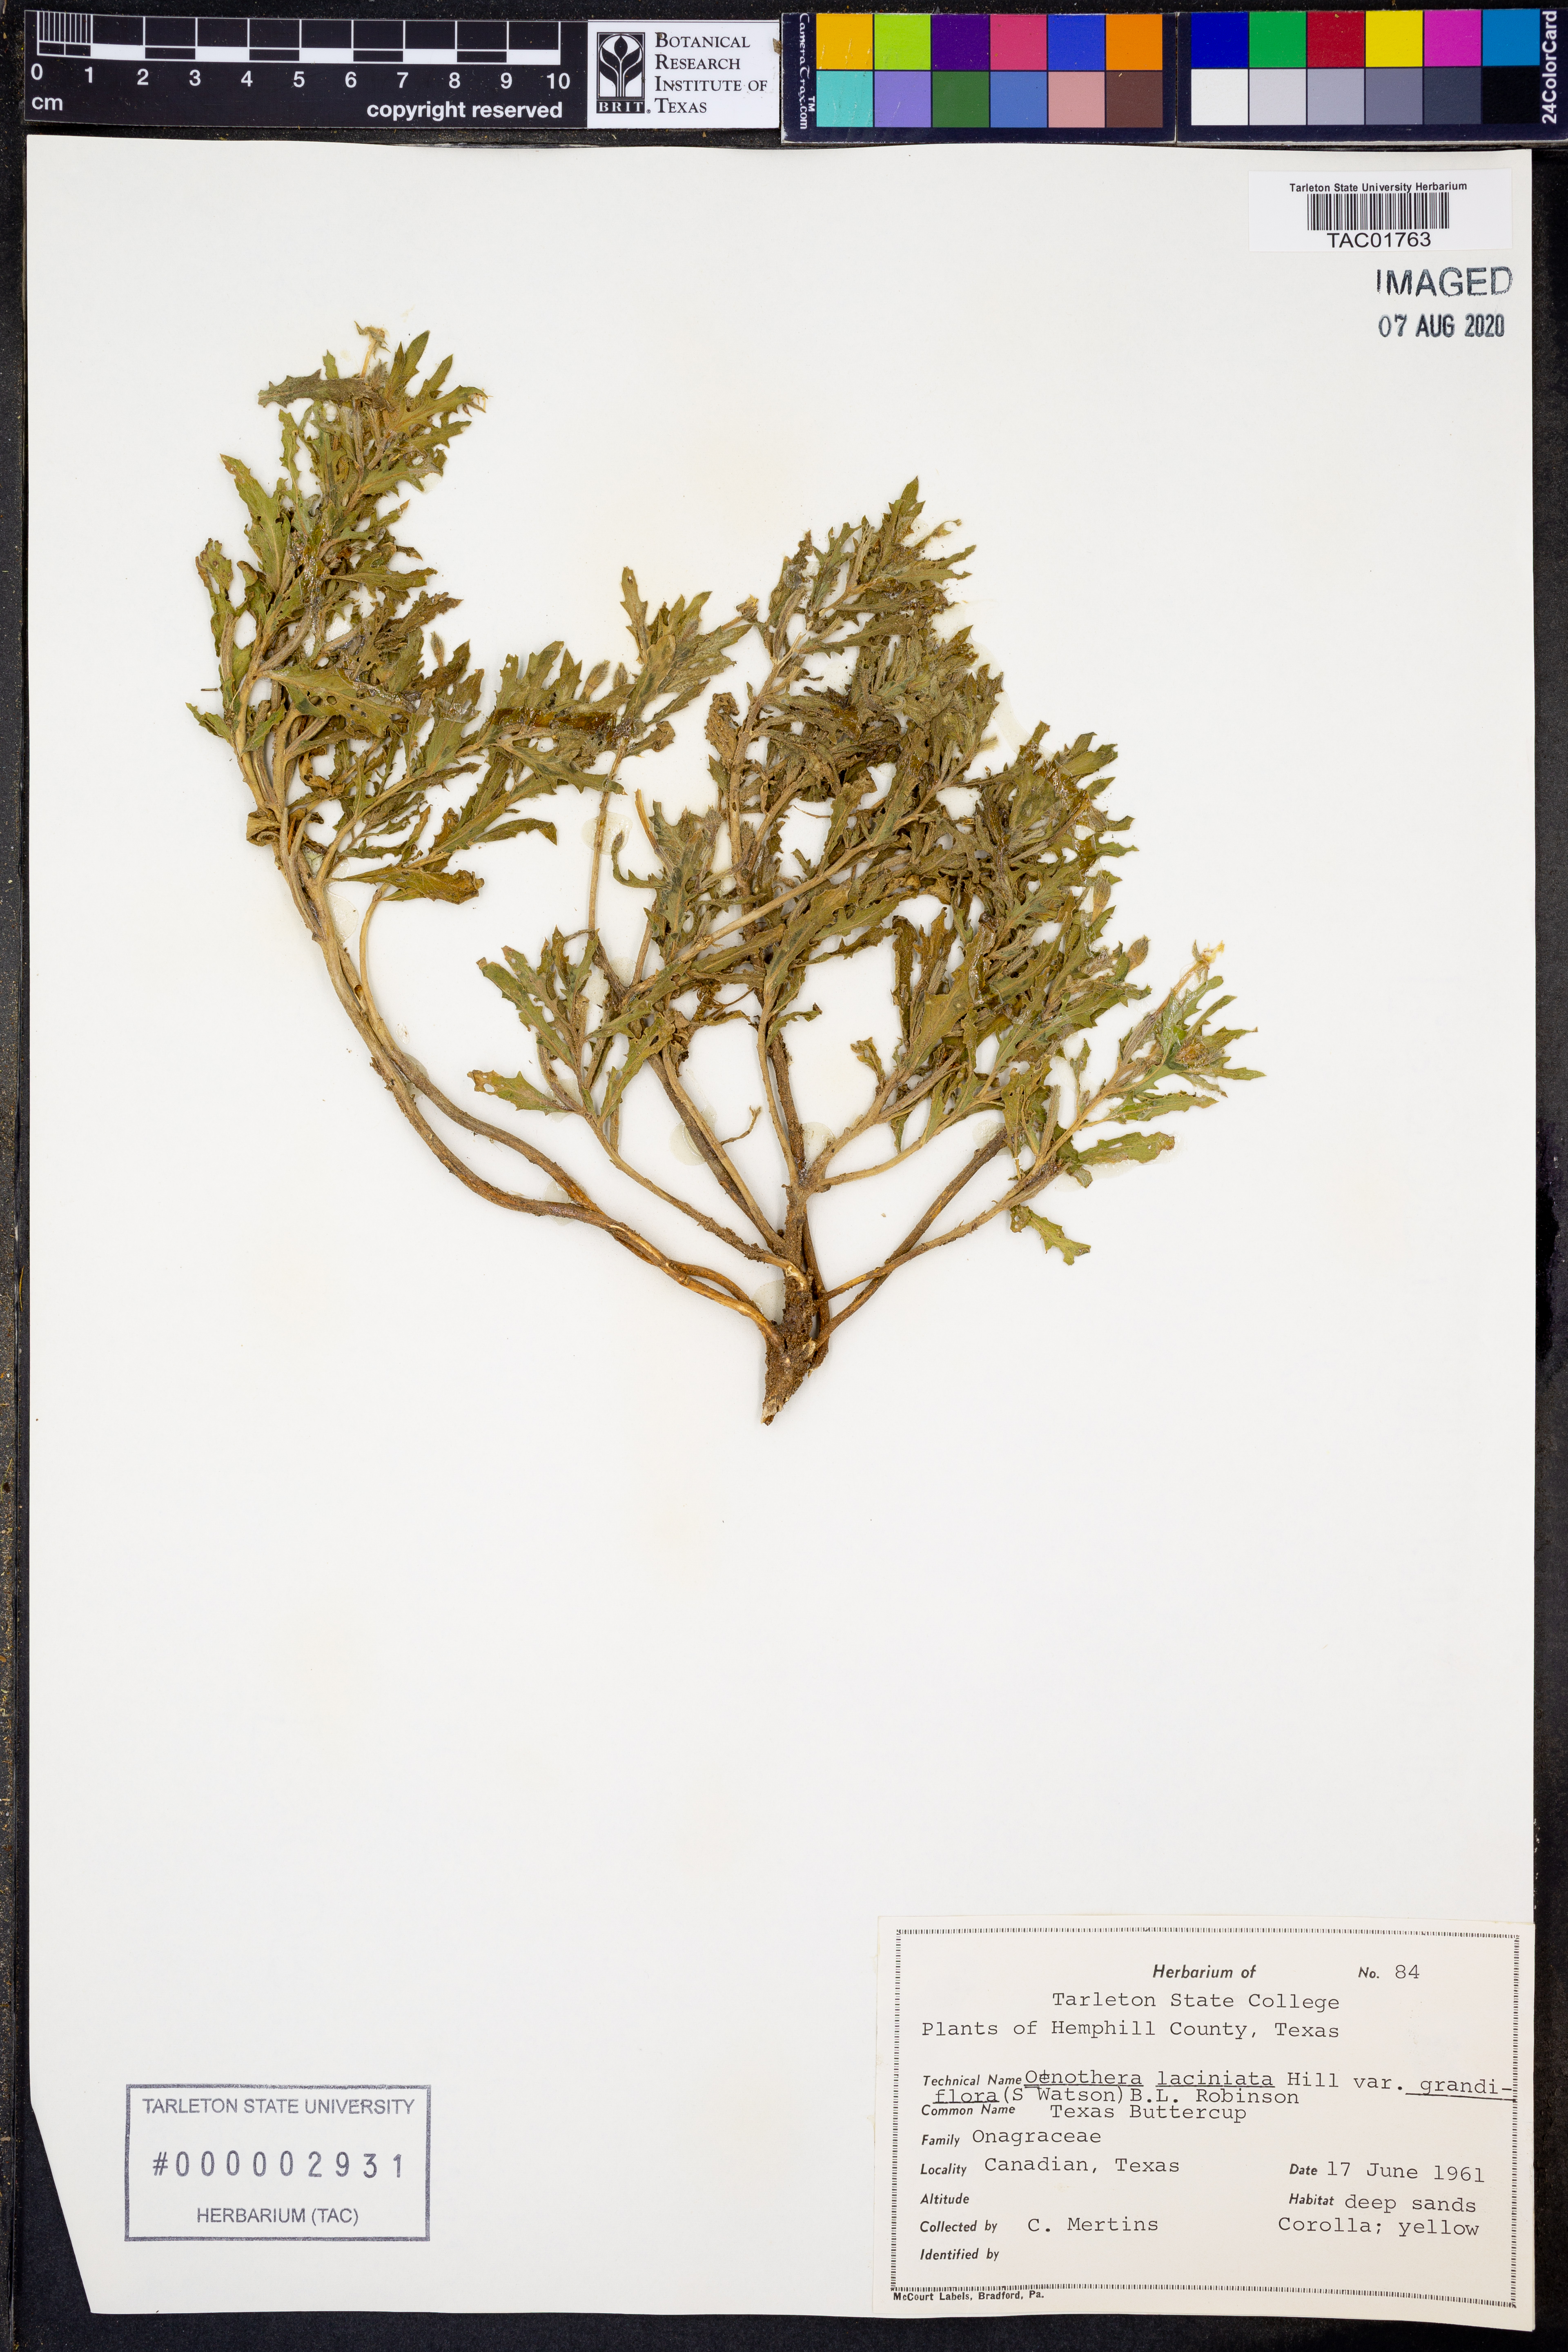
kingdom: Plantae
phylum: Tracheophyta
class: Magnoliopsida
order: Myrtales
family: Onagraceae
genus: Oenothera
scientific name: Oenothera grandis
